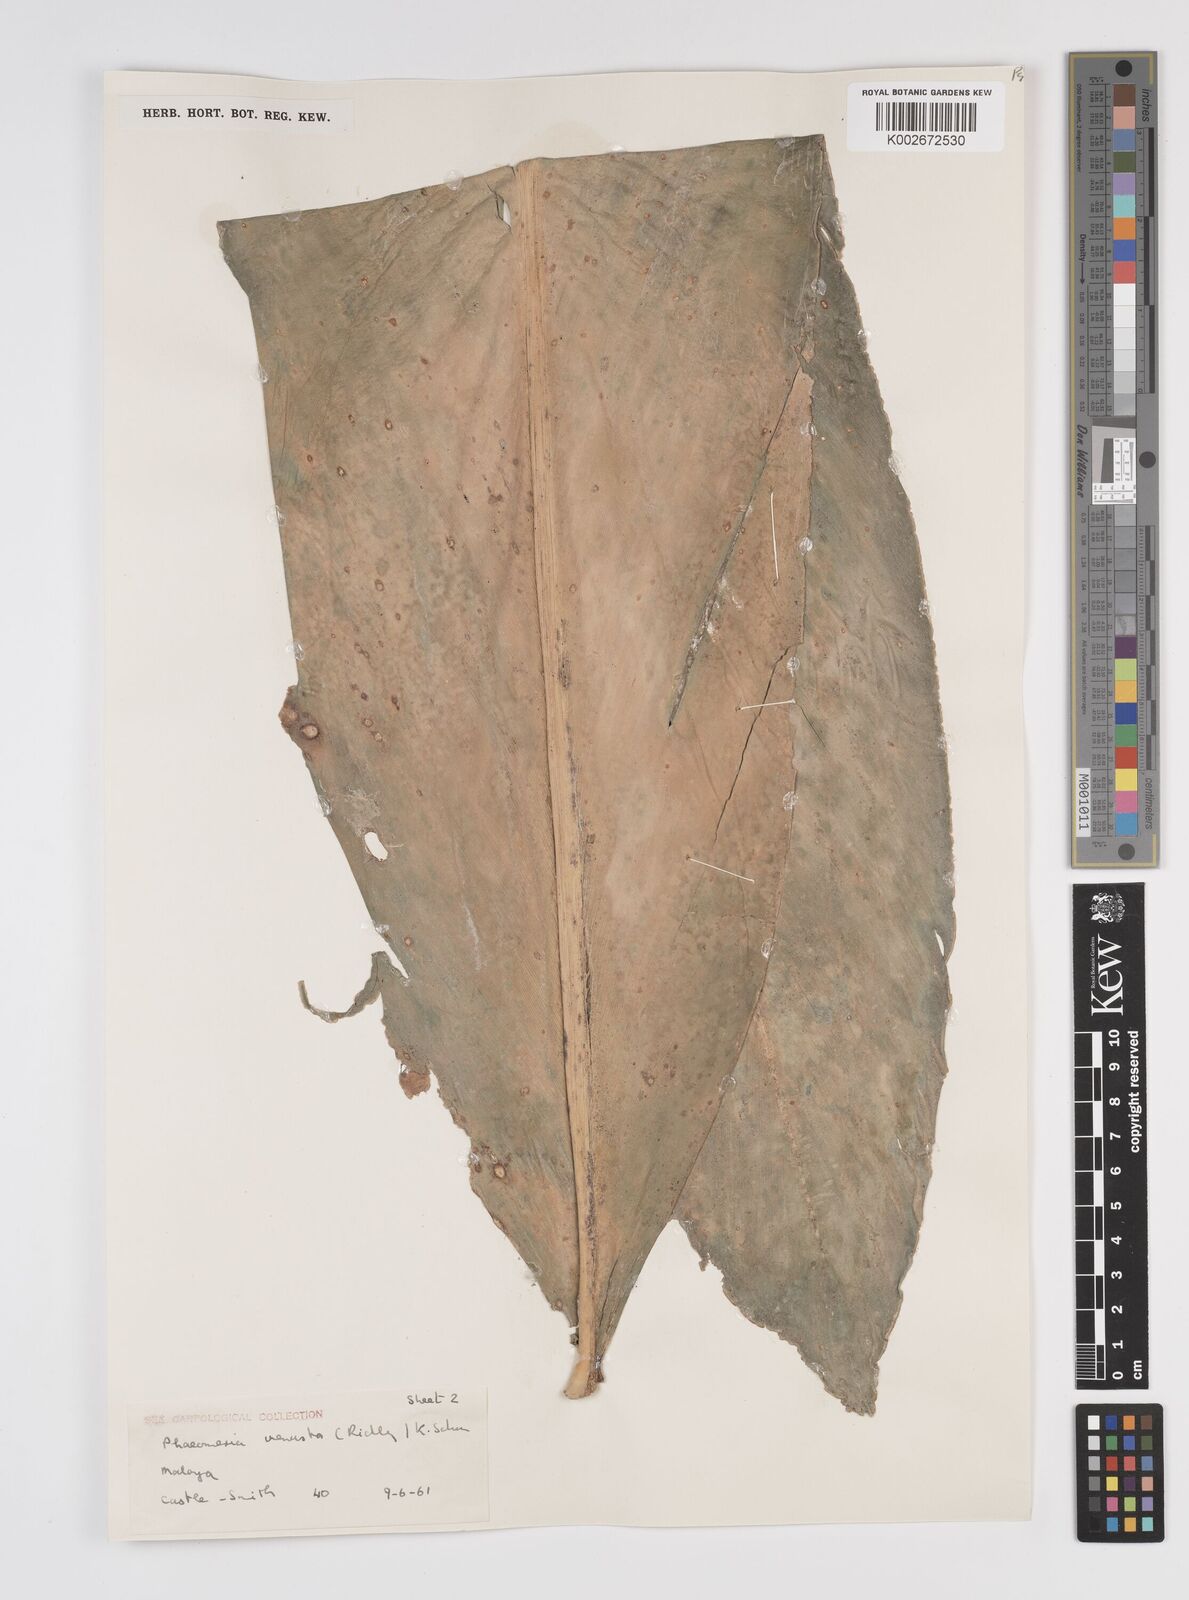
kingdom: Plantae
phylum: Tracheophyta
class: Liliopsida
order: Zingiberales
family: Zingiberaceae
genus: Etlingera
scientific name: Etlingera venusta
